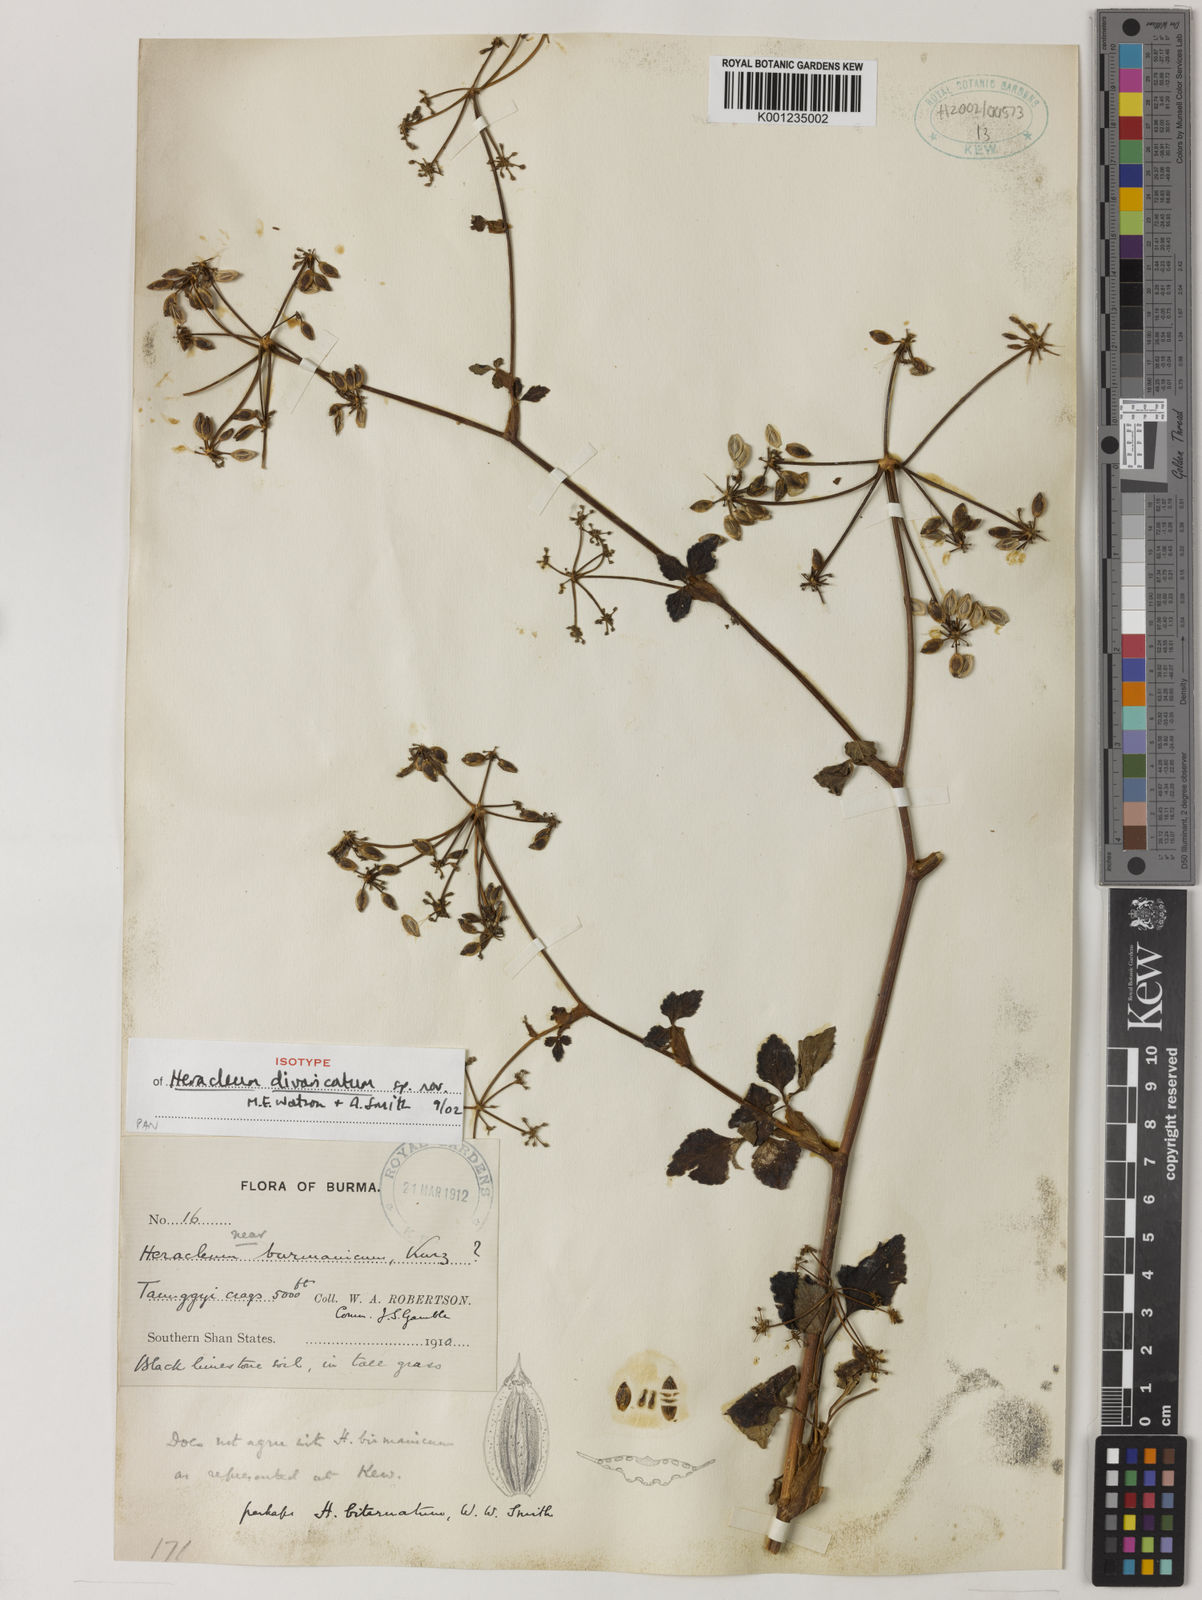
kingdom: Plantae
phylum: Tracheophyta
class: Magnoliopsida
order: Apiales
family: Apiaceae
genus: Tetrataenium
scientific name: Tetrataenium birmanicum
